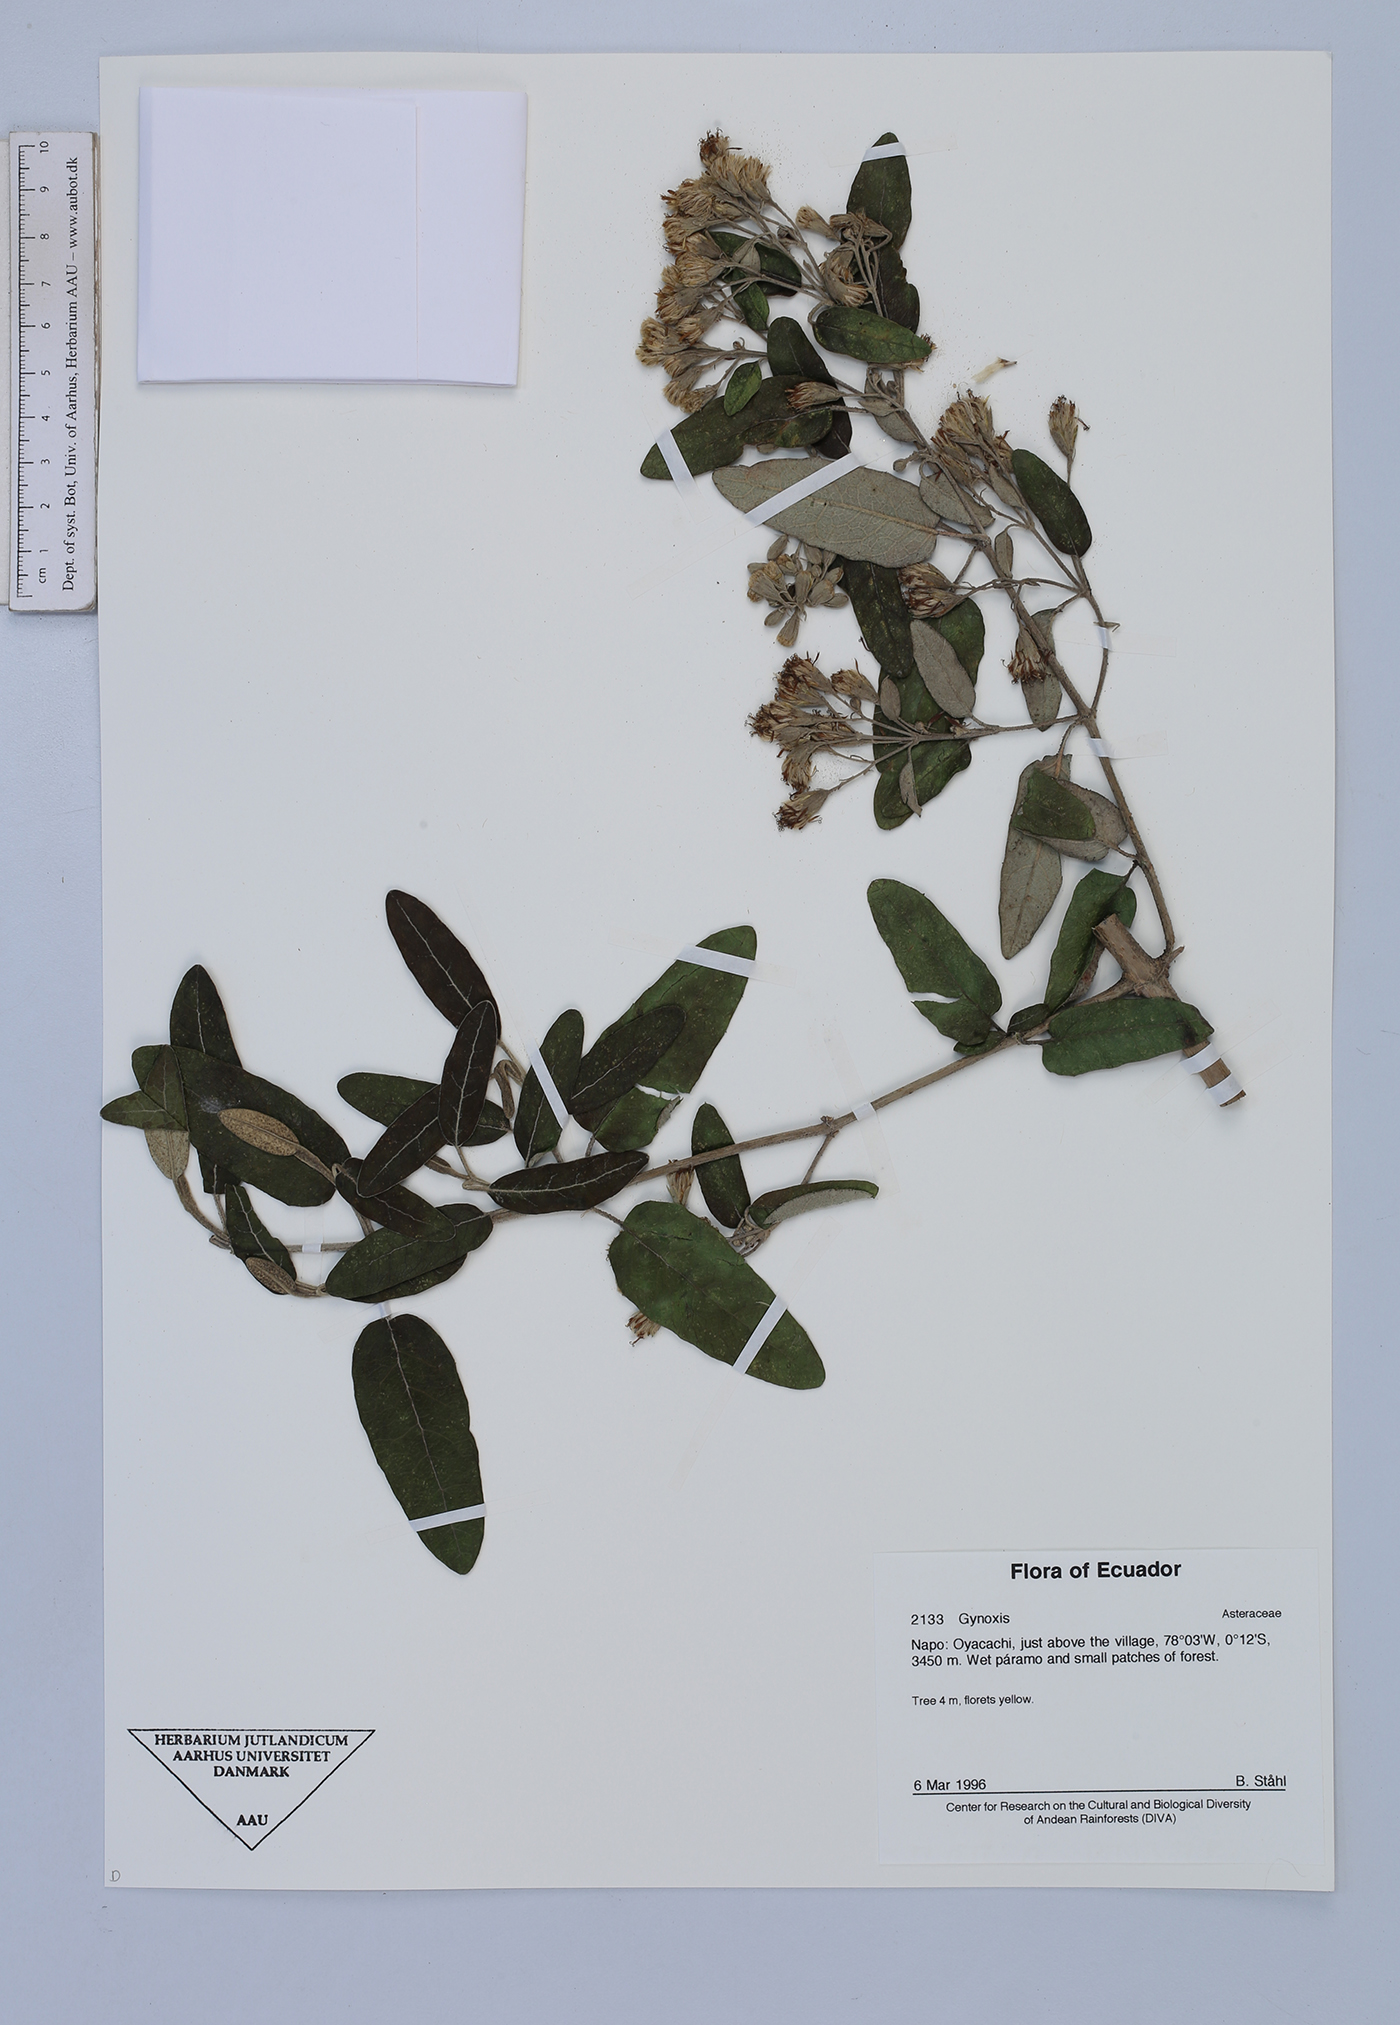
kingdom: Plantae
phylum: Tracheophyta
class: Magnoliopsida
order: Asterales
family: Asteraceae
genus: Gynoxys
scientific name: Gynoxys sodiroi
